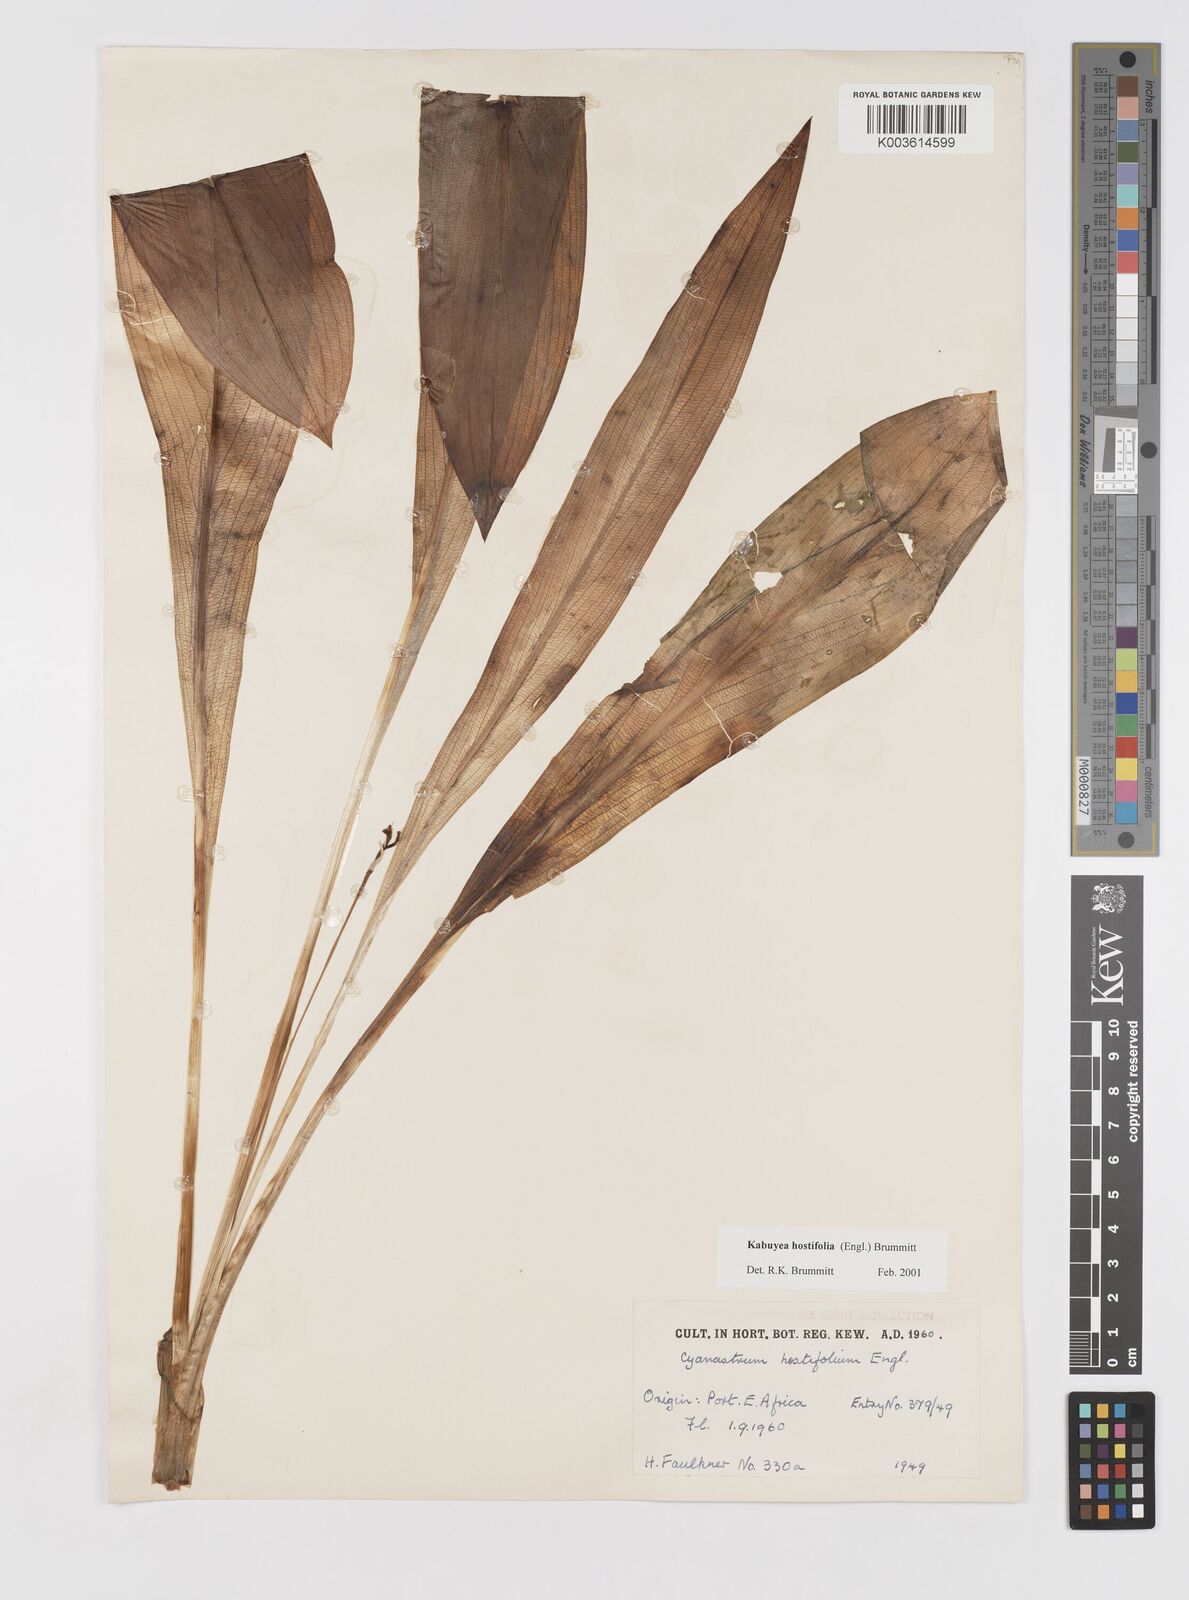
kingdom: Plantae
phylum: Tracheophyta
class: Liliopsida
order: Asparagales
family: Tecophilaeaceae
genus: Kabuyea
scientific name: Kabuyea hostifolia
